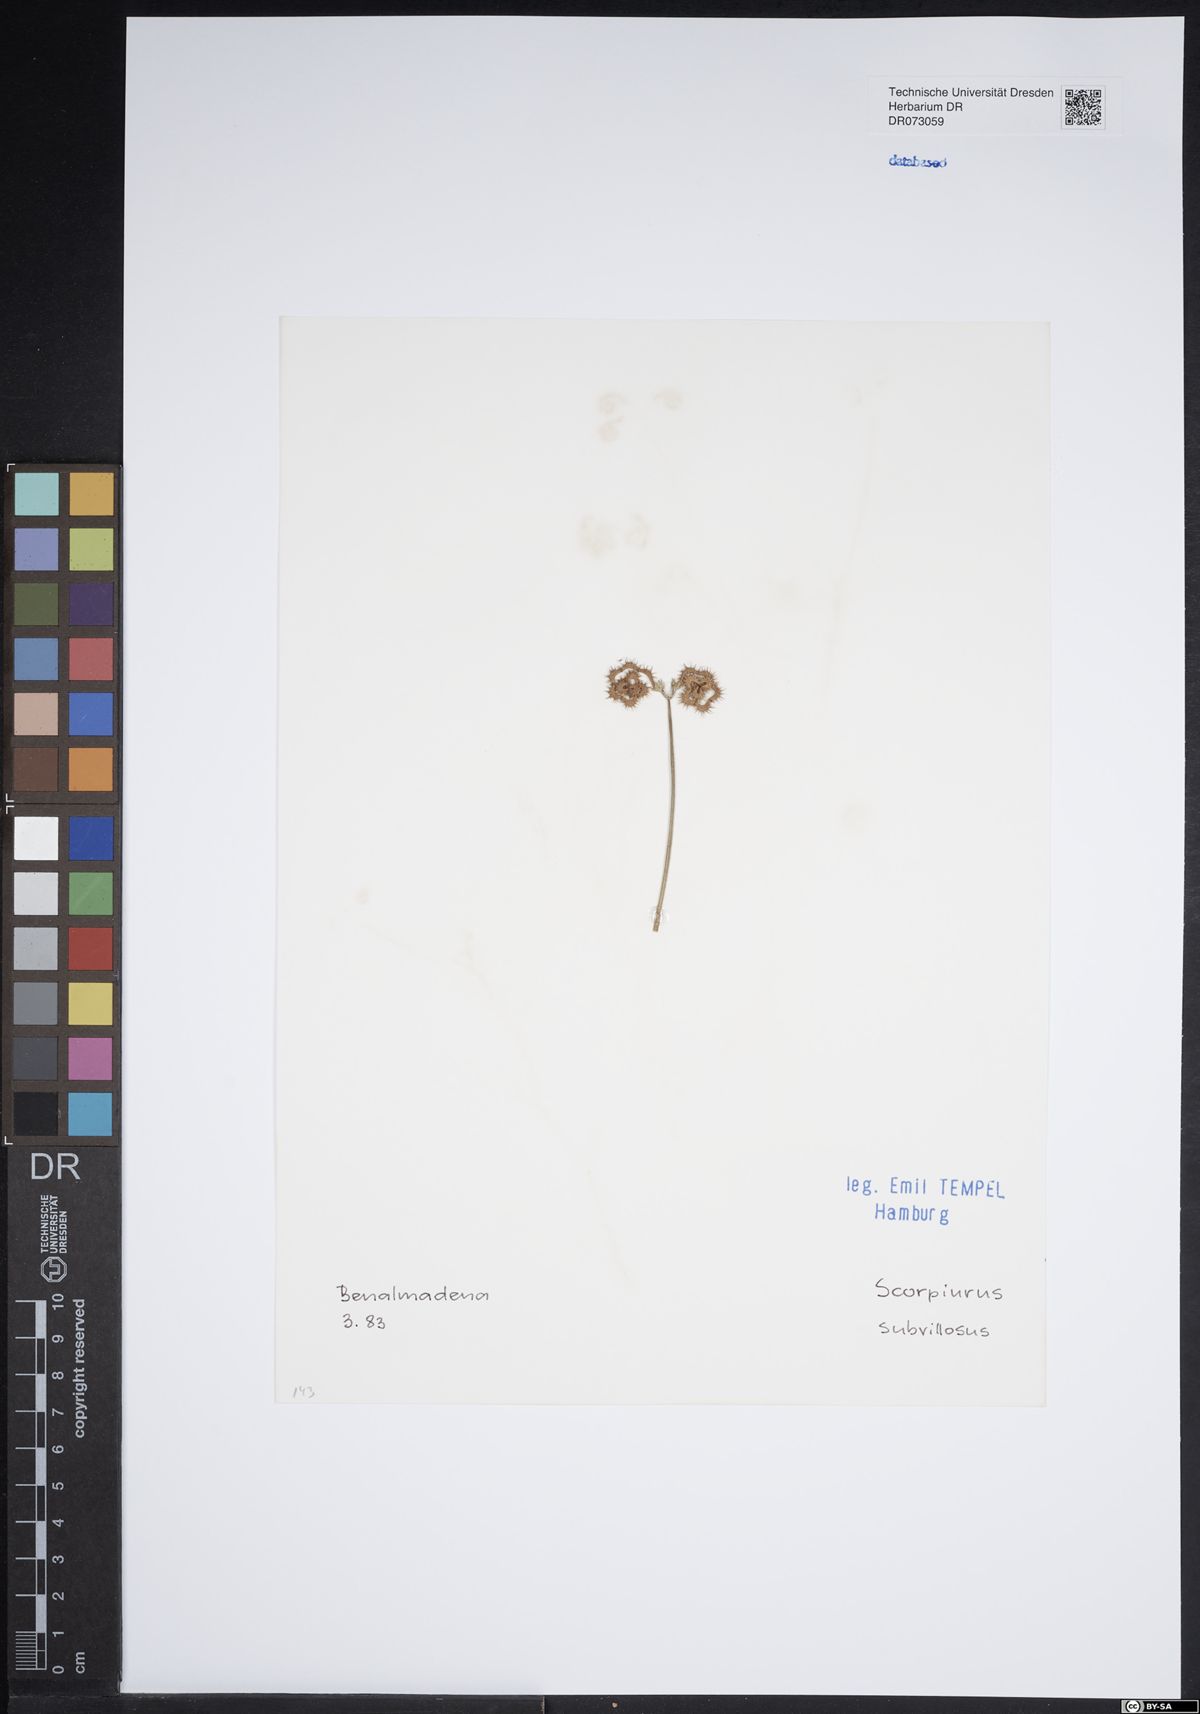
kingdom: Plantae
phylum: Tracheophyta
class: Magnoliopsida
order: Fabales
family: Fabaceae
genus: Scorpiurus
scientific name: Scorpiurus muricatus
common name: Caterpillar-plant
